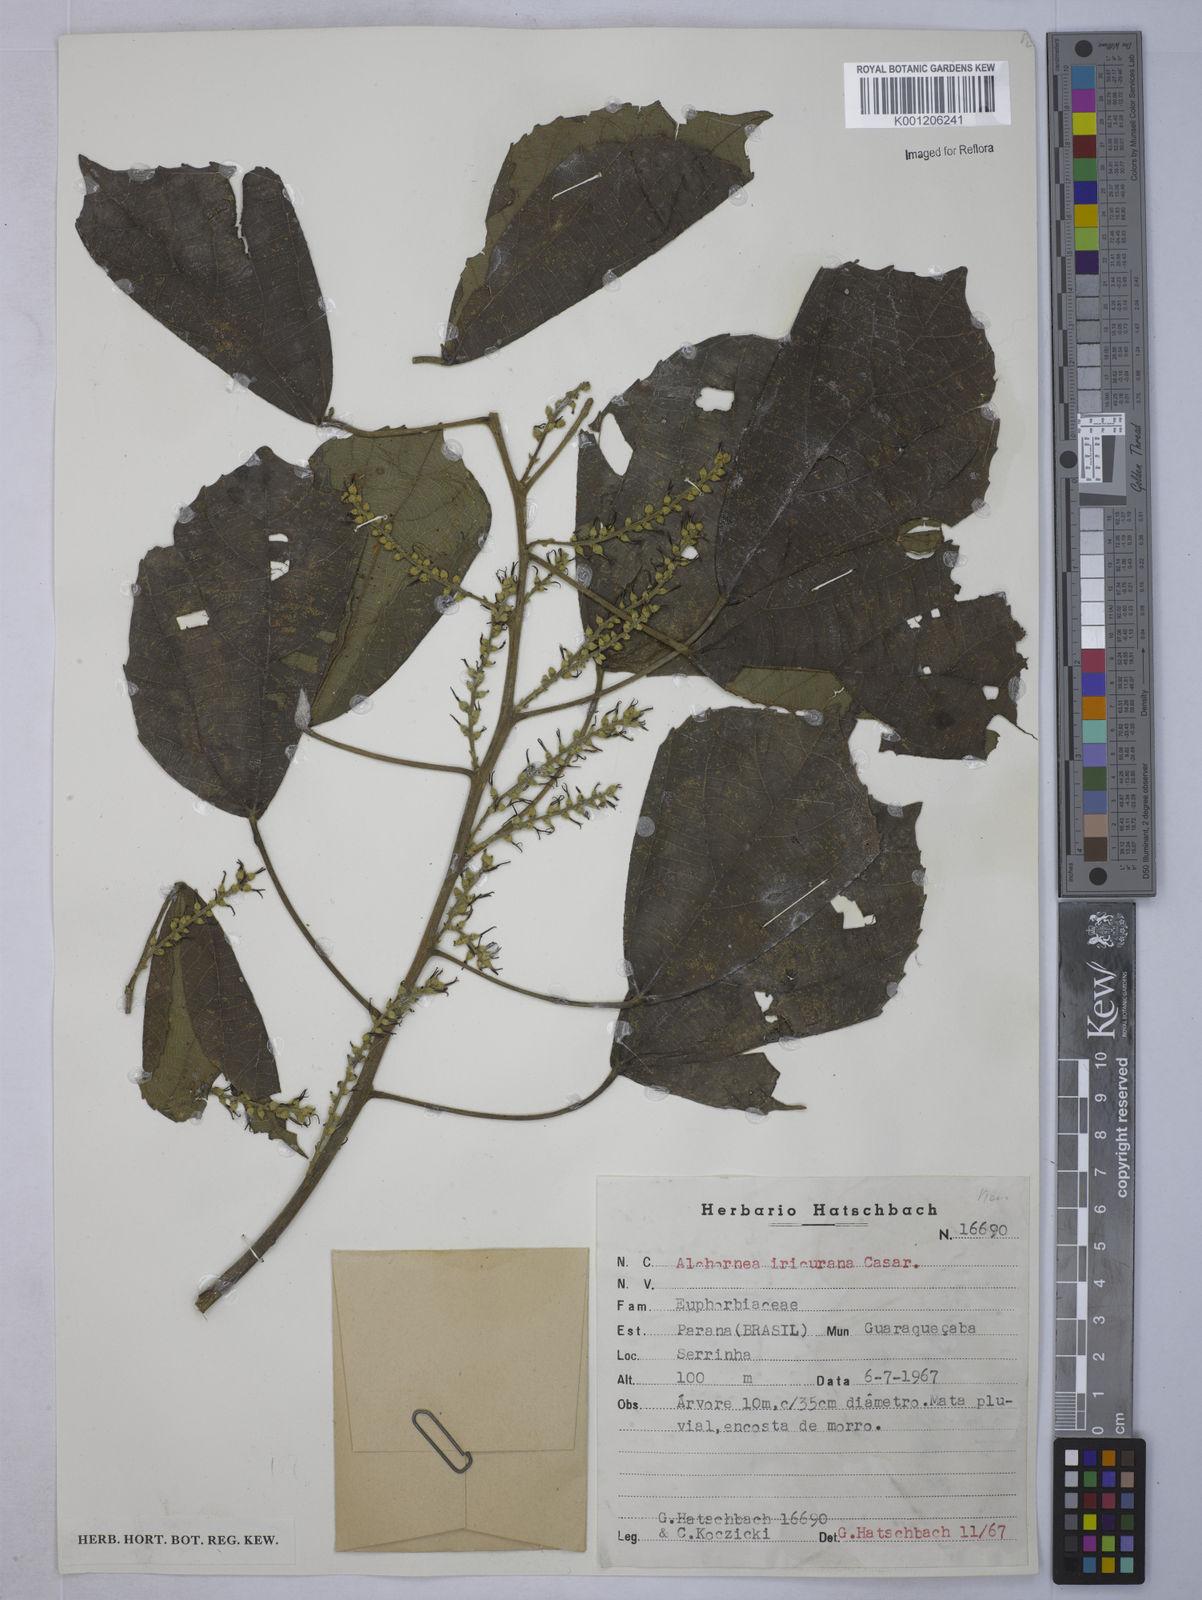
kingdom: Plantae
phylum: Tracheophyta
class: Magnoliopsida
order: Malpighiales
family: Euphorbiaceae
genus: Alchornea
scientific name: Alchornea glandulosa
